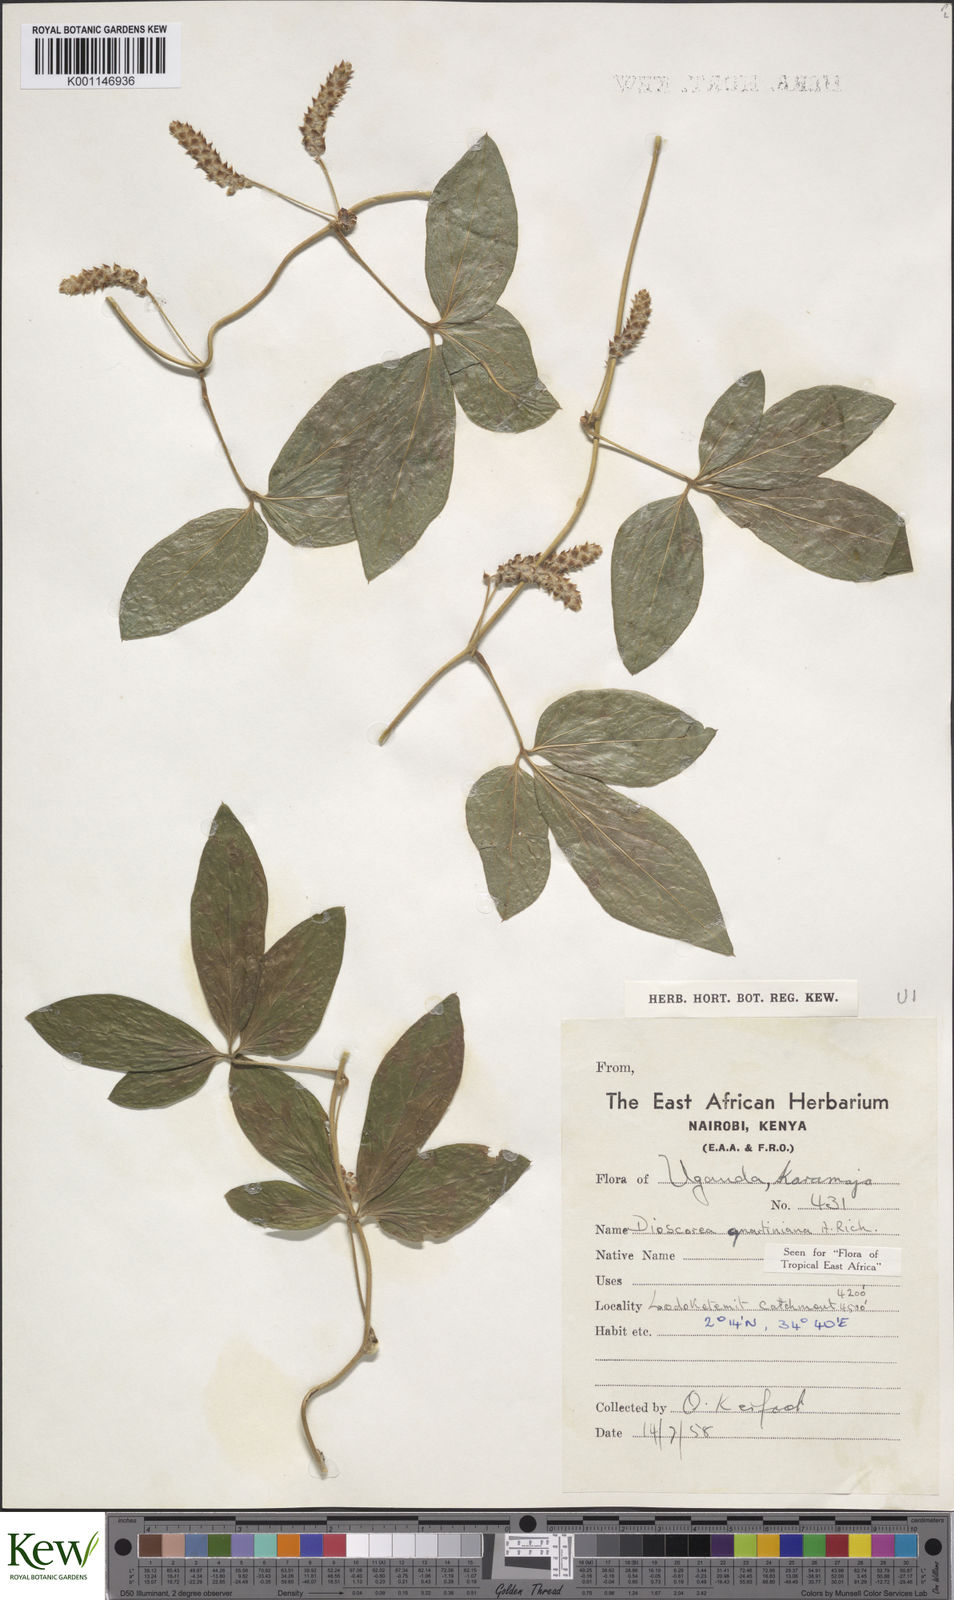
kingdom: Plantae
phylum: Tracheophyta
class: Liliopsida
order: Dioscoreales
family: Dioscoreaceae
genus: Dioscorea
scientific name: Dioscorea quartiniana
